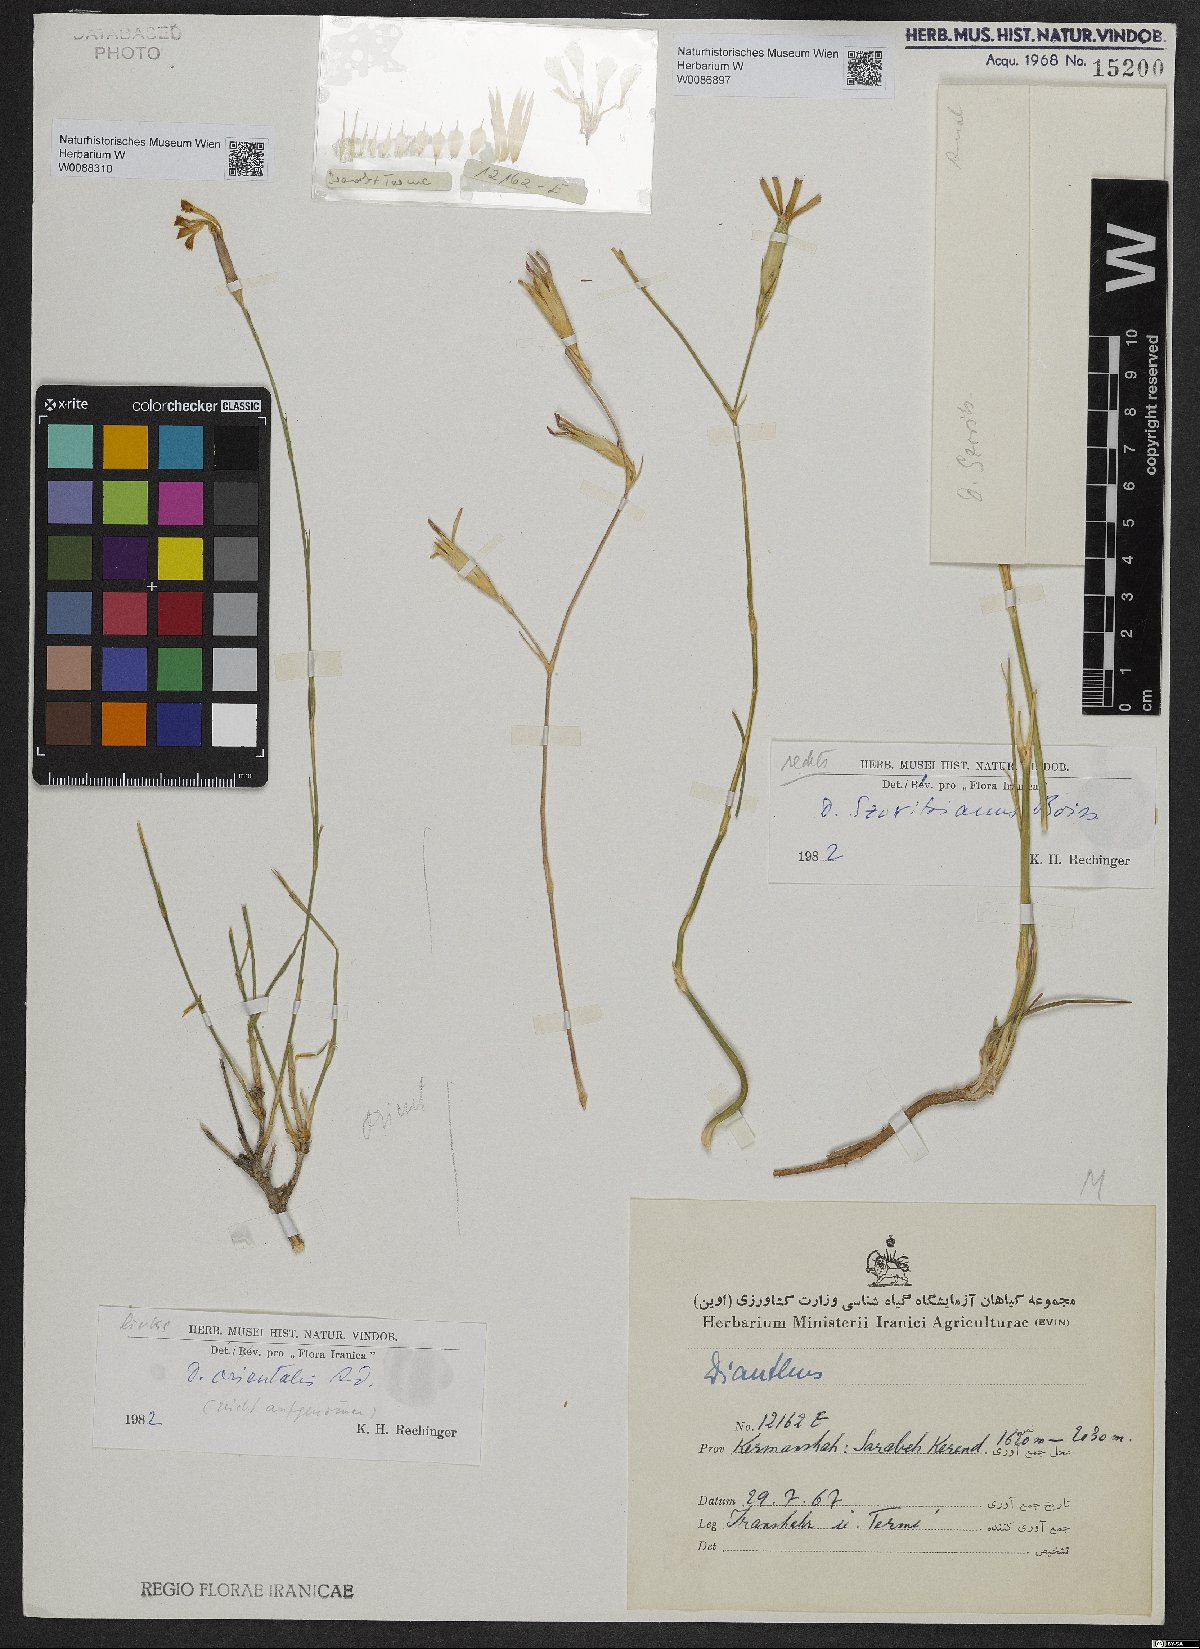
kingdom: Plantae
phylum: Tracheophyta
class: Magnoliopsida
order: Caryophyllales
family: Caryophyllaceae
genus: Dianthus
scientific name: Dianthus orientalis
